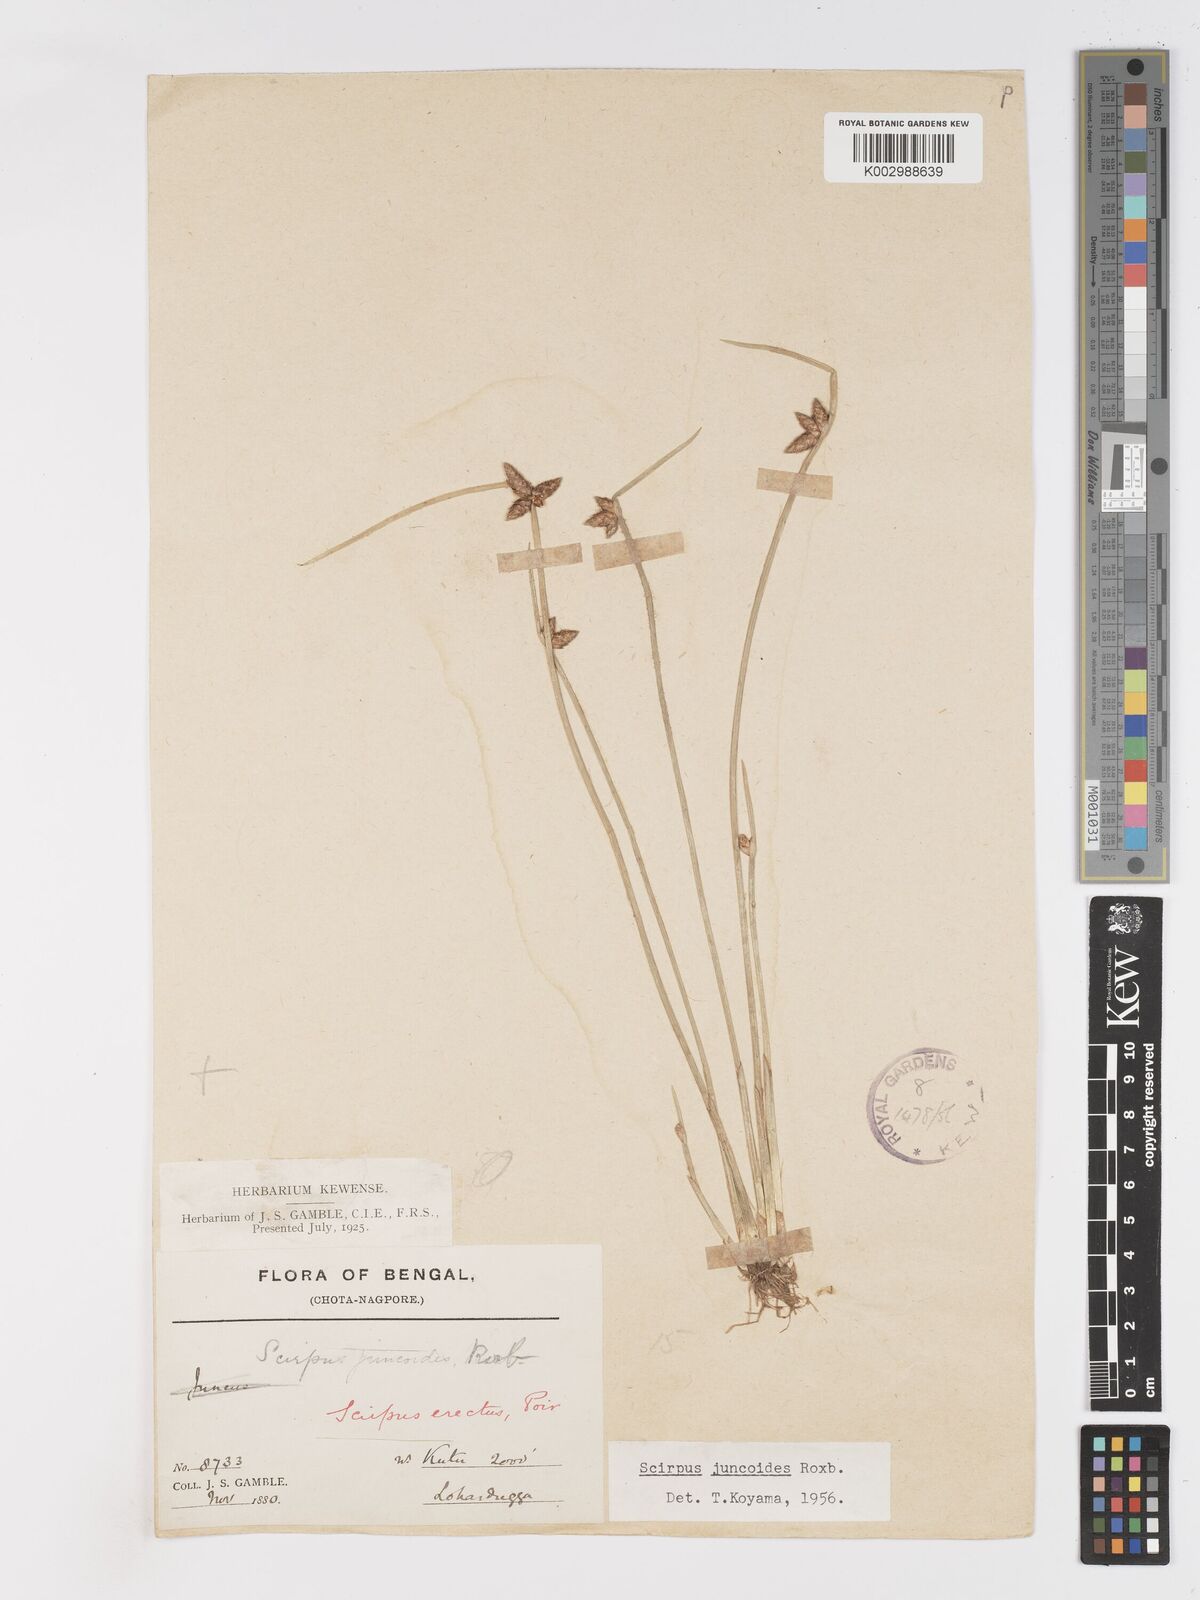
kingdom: Plantae
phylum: Tracheophyta
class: Liliopsida
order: Poales
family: Cyperaceae
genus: Schoenoplectiella
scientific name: Schoenoplectiella juncoides
